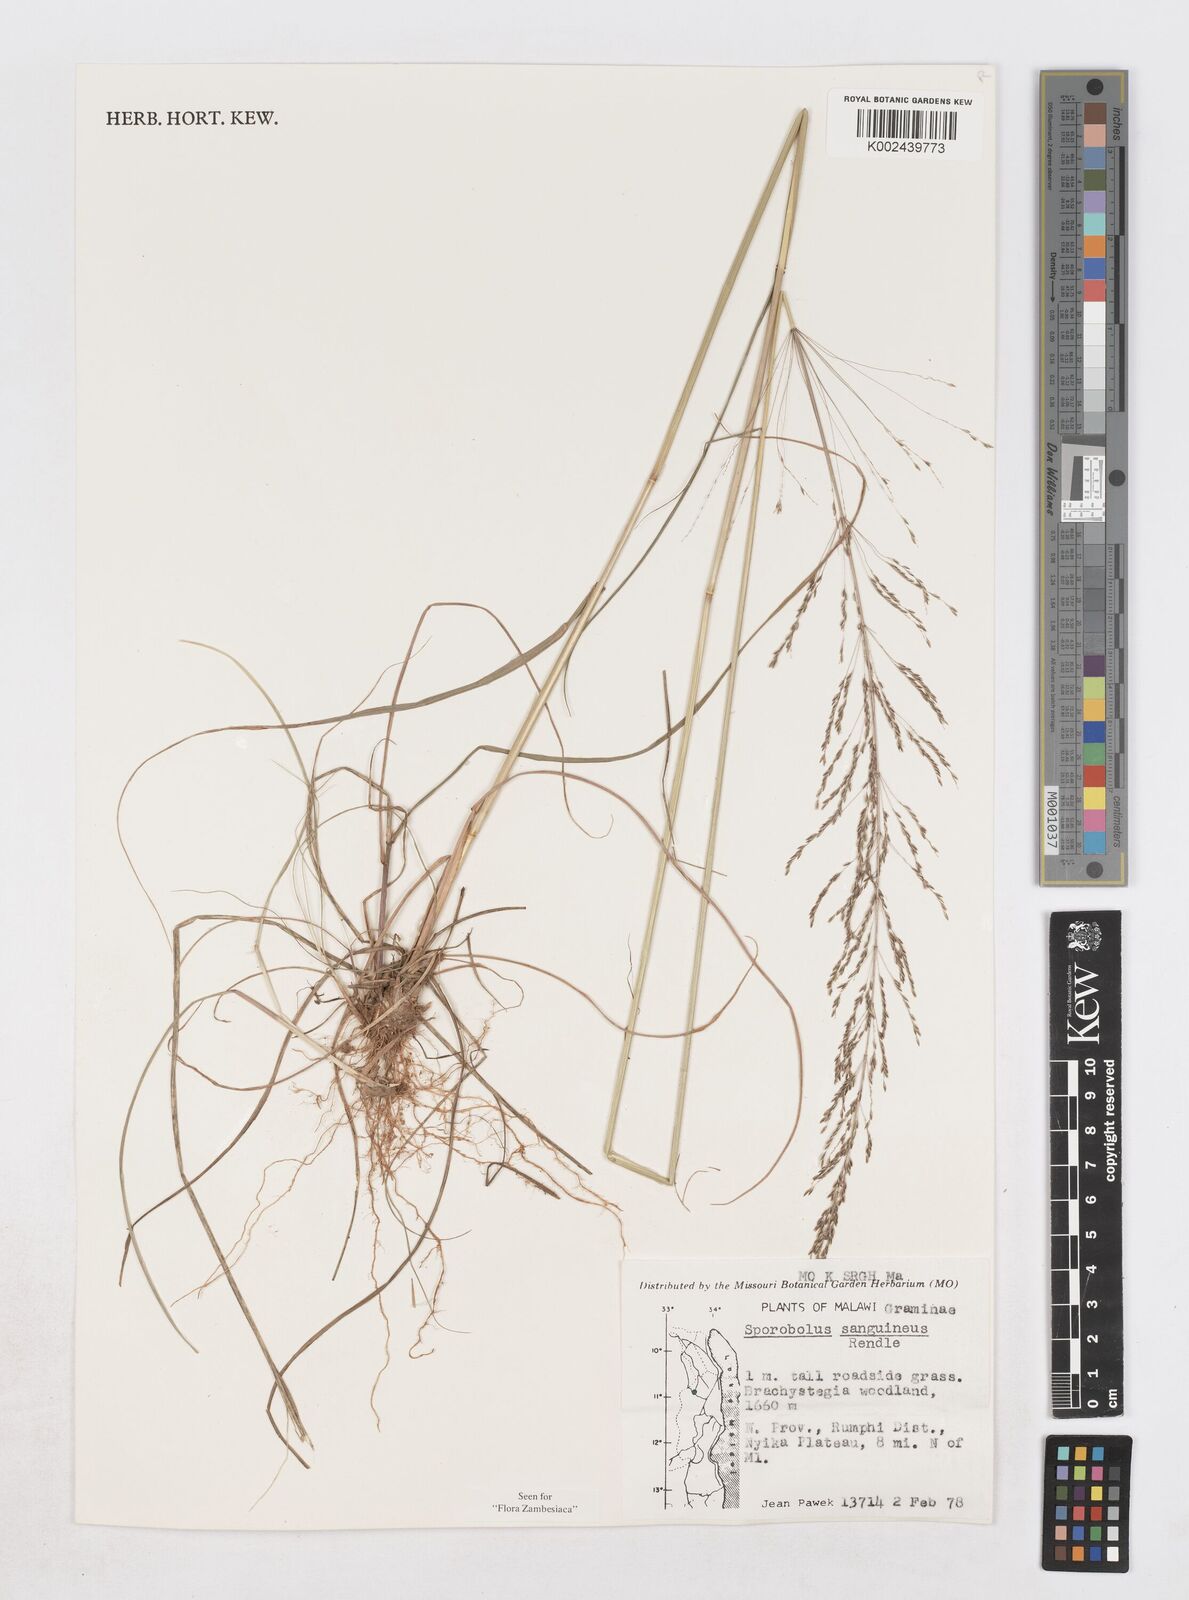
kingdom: Plantae
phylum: Tracheophyta
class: Liliopsida
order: Poales
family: Poaceae
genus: Sporobolus
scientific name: Sporobolus sanguineus
